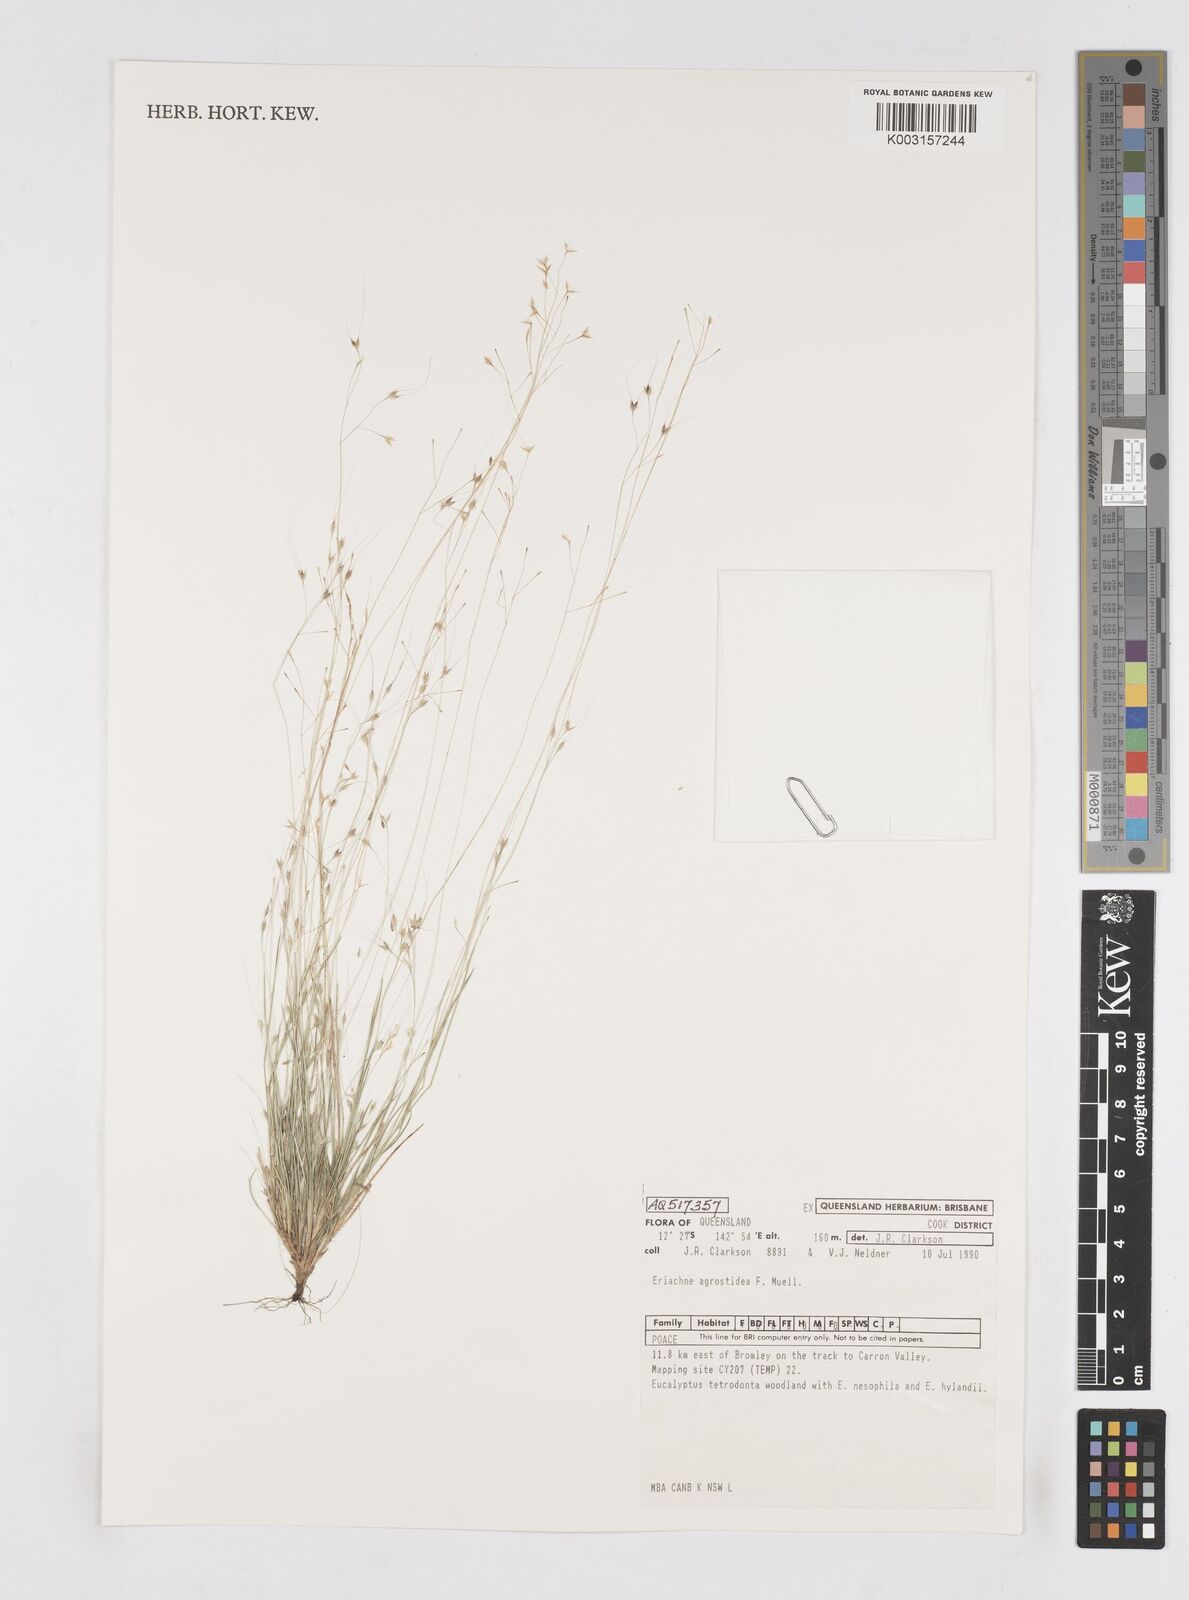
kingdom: Plantae
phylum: Tracheophyta
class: Liliopsida
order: Poales
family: Poaceae
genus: Eriachne
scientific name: Eriachne agrostidea
